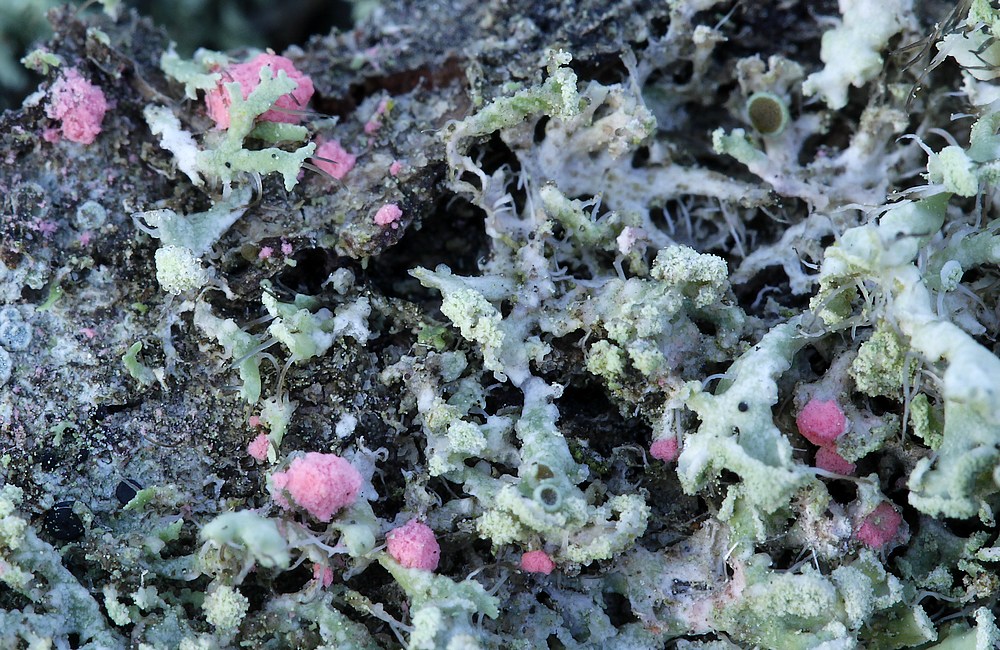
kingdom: Fungi
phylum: Ascomycota
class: Sordariomycetes
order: Hypocreales
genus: Illosporiopsis
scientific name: Illosporiopsis christiansenii
